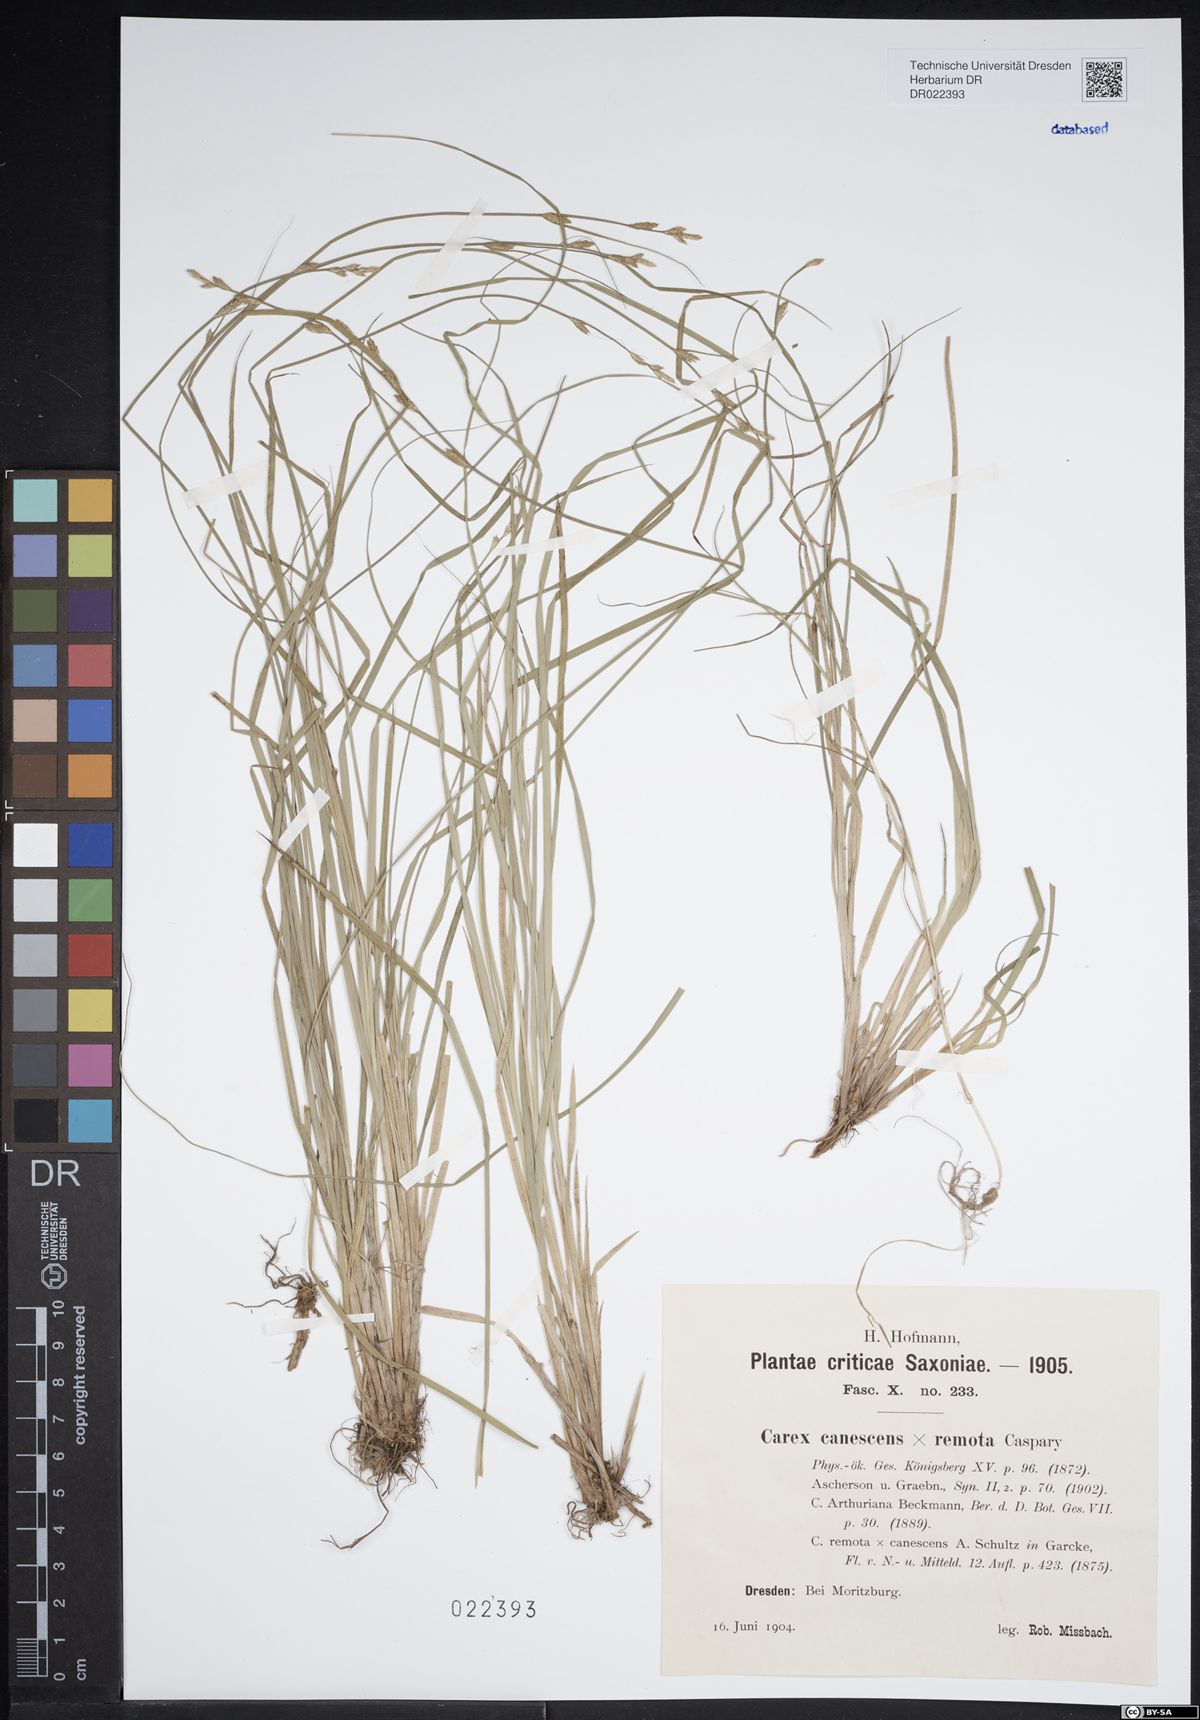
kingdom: Plantae
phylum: Tracheophyta
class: Liliopsida
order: Poales
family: Cyperaceae
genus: Carex
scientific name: Carex arthuriana
